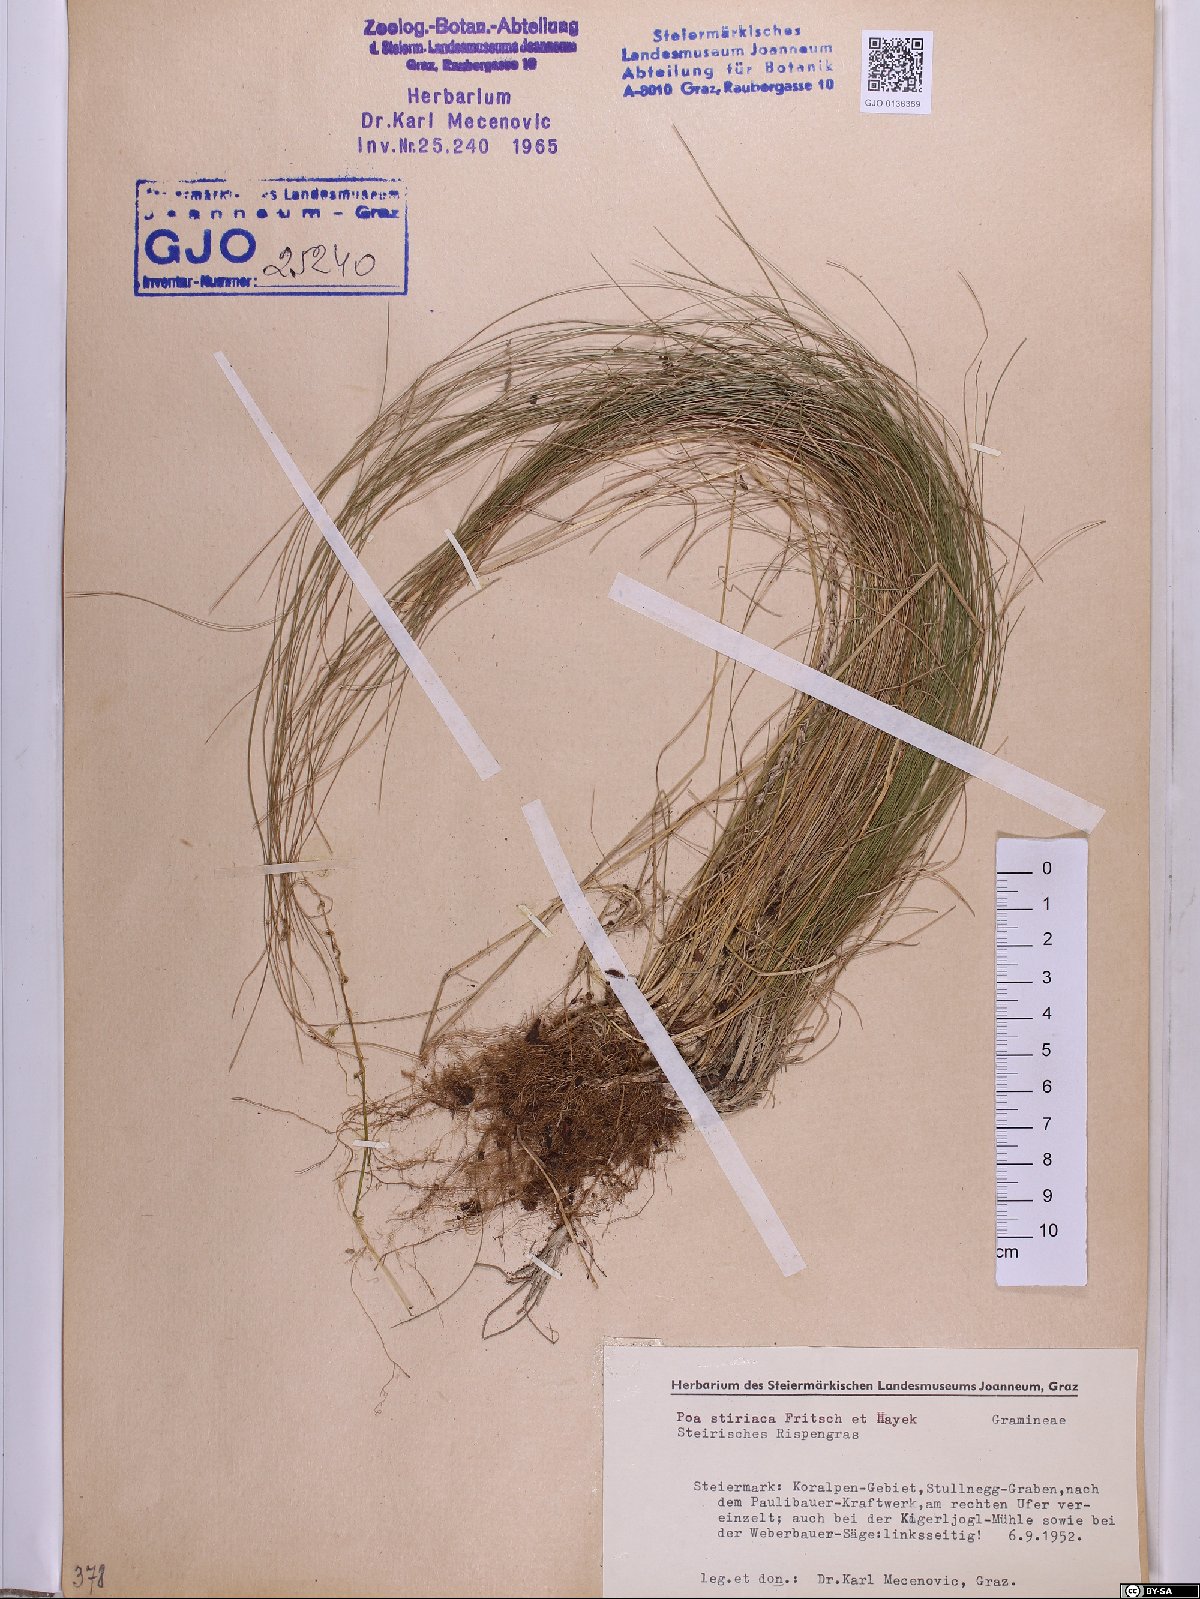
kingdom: Plantae
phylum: Tracheophyta
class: Liliopsida
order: Poales
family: Poaceae
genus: Poa
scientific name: Poa stiriaca
